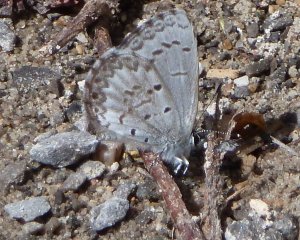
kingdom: Animalia
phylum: Arthropoda
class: Insecta
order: Lepidoptera
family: Lycaenidae
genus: Celastrina
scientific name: Celastrina lucia
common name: Northern Spring Azure
